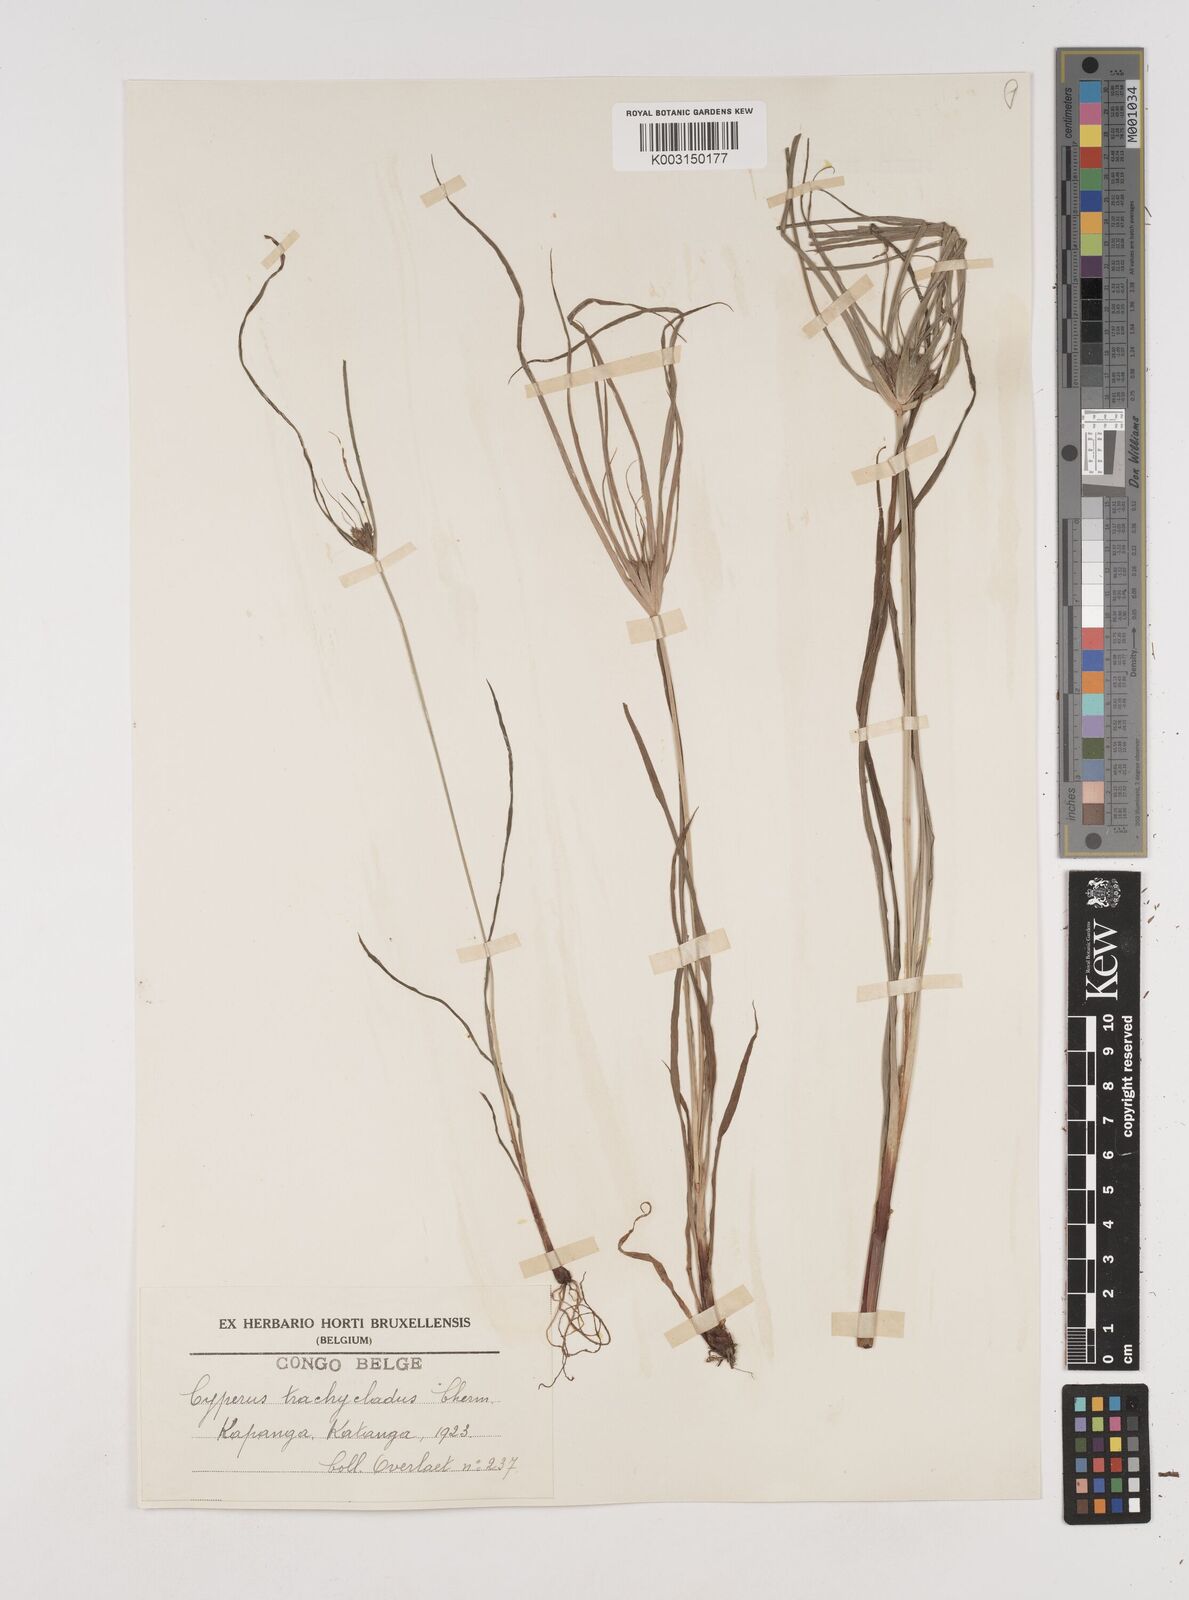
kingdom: Plantae
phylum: Tracheophyta
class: Liliopsida
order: Poales
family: Cyperaceae
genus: Cyperus
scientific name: Cyperus
